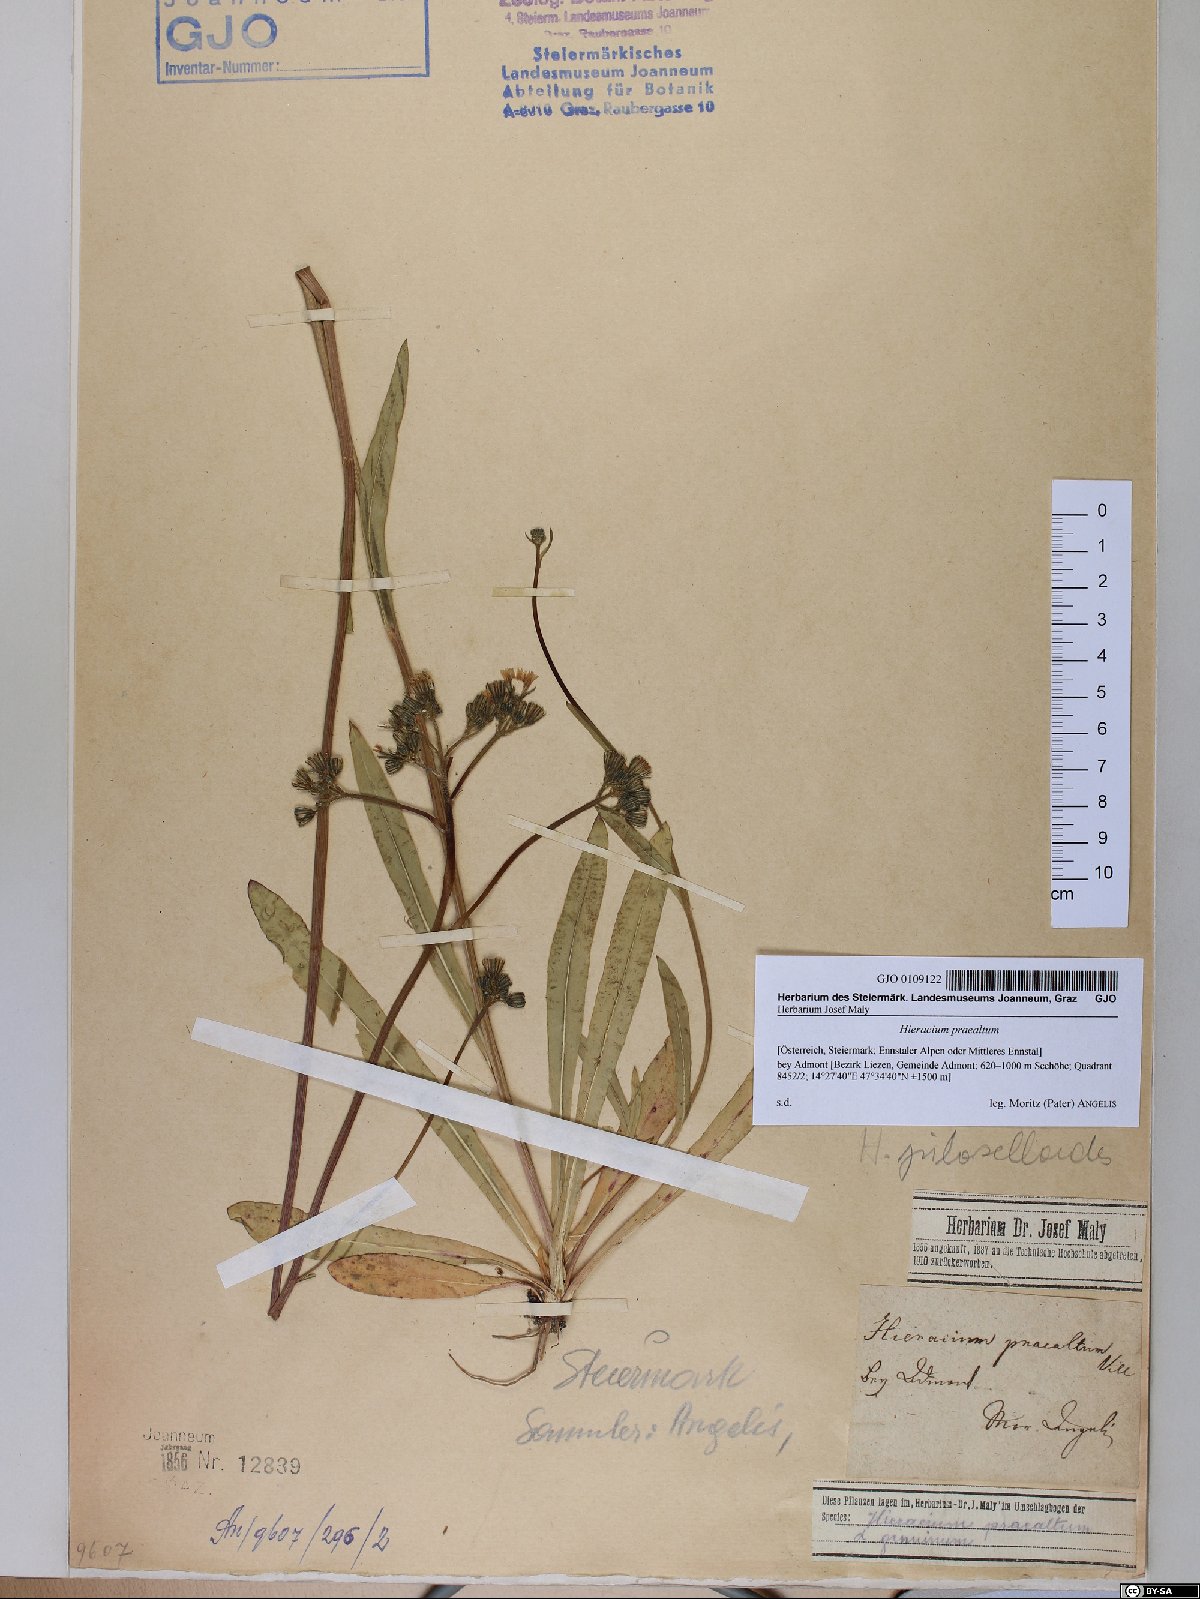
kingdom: Plantae
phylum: Tracheophyta
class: Magnoliopsida
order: Asterales
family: Asteraceae
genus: Pilosella
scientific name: Pilosella piloselloides
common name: Glaucous king-devil
